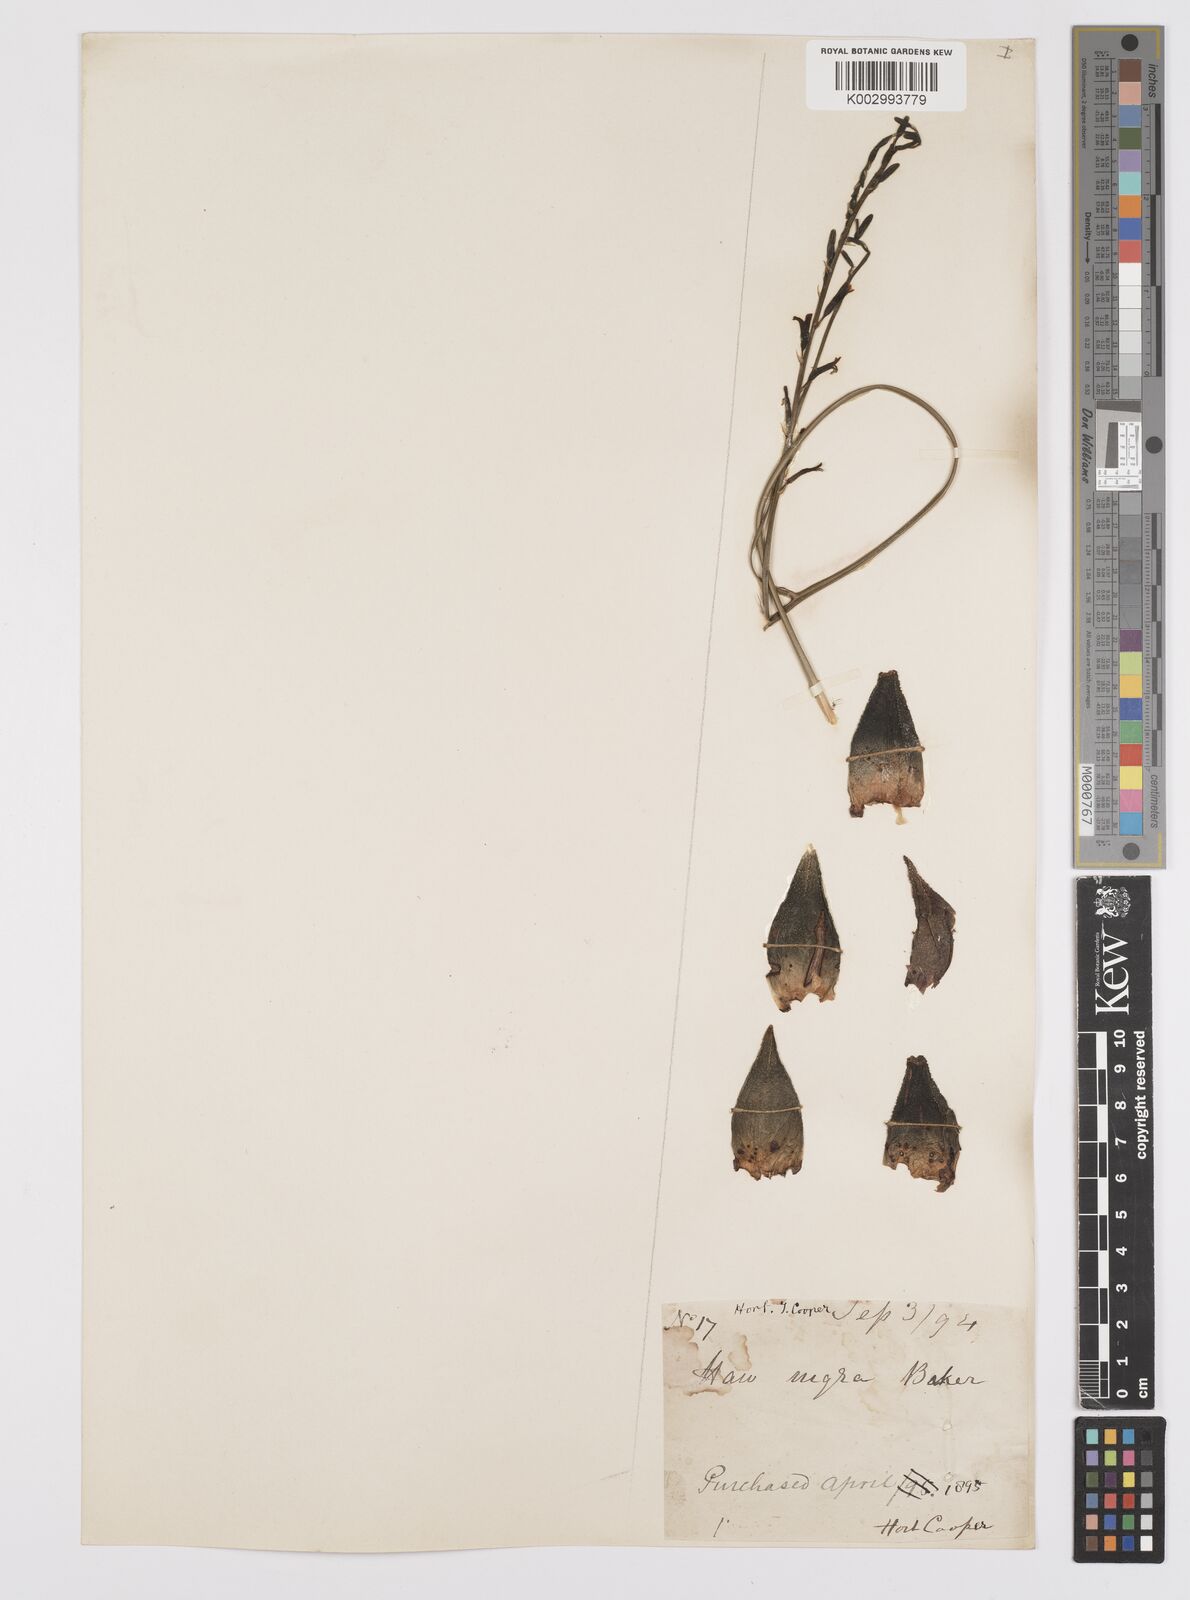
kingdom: Plantae
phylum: Tracheophyta
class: Liliopsida
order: Asparagales
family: Asphodelaceae
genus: Haworthiopsis
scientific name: Haworthiopsis nigra
